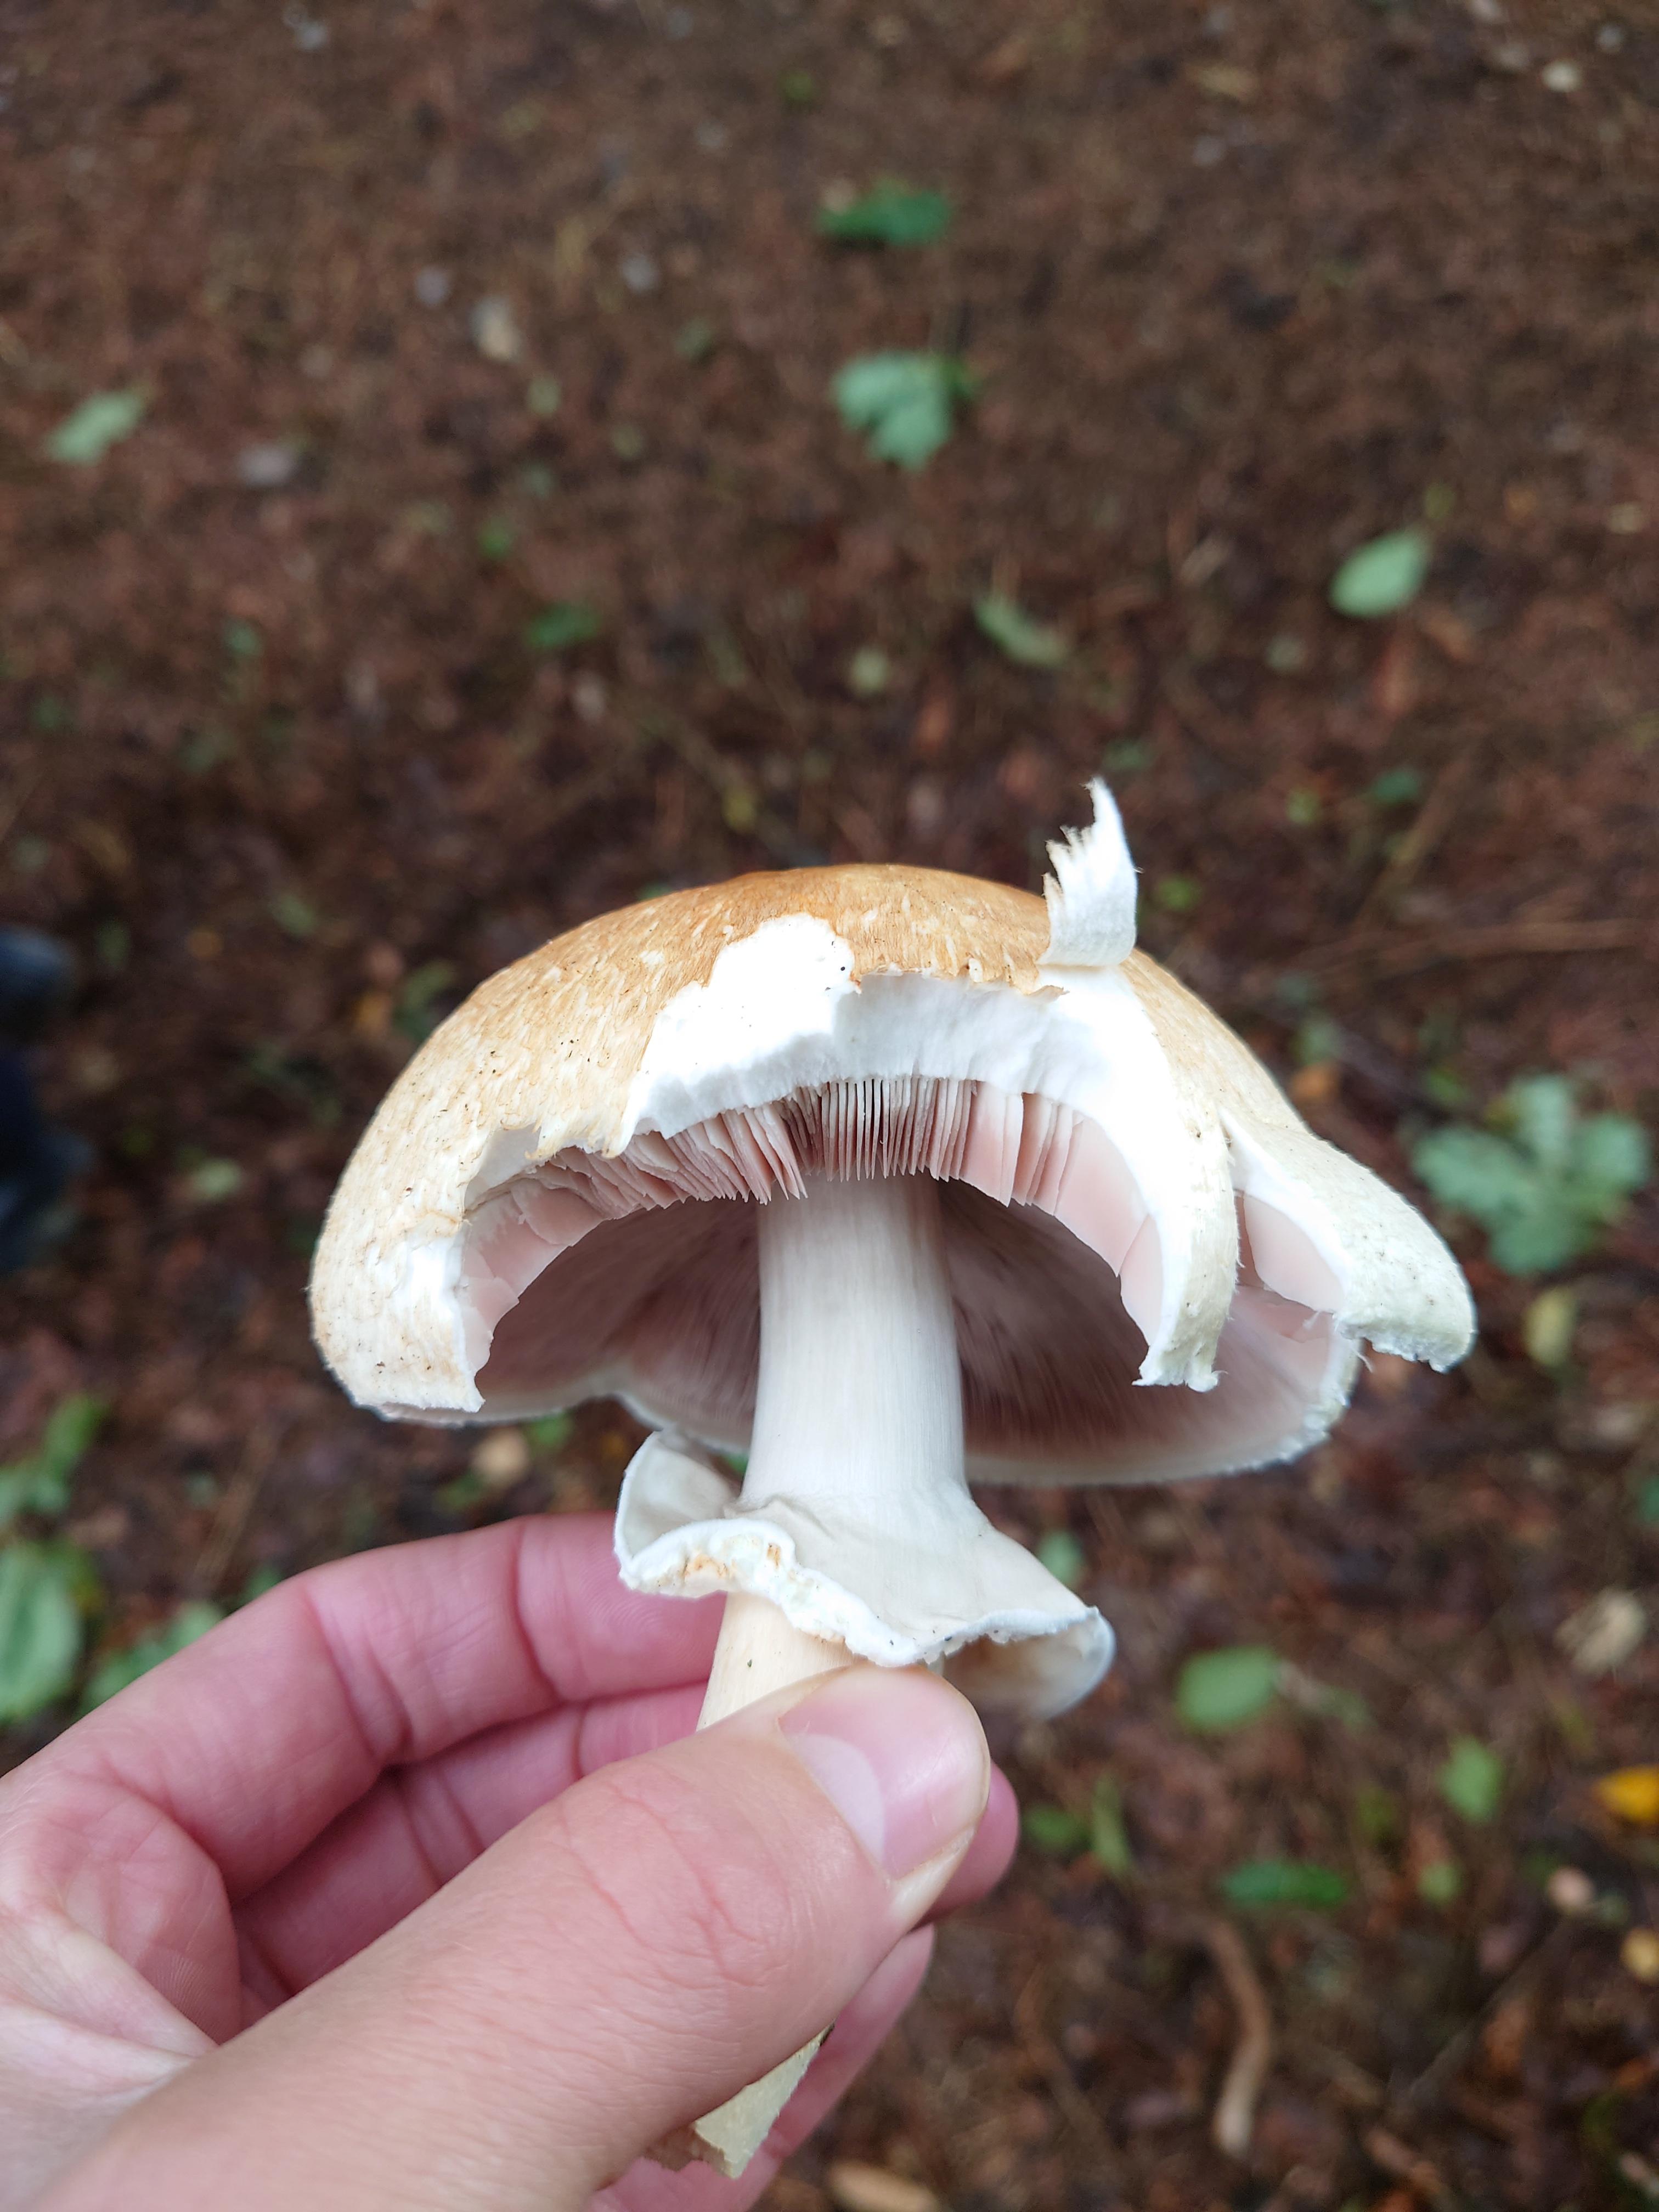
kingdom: Fungi
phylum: Basidiomycota
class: Agaricomycetes
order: Agaricales
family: Agaricaceae
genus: Agaricus
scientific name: Agaricus
